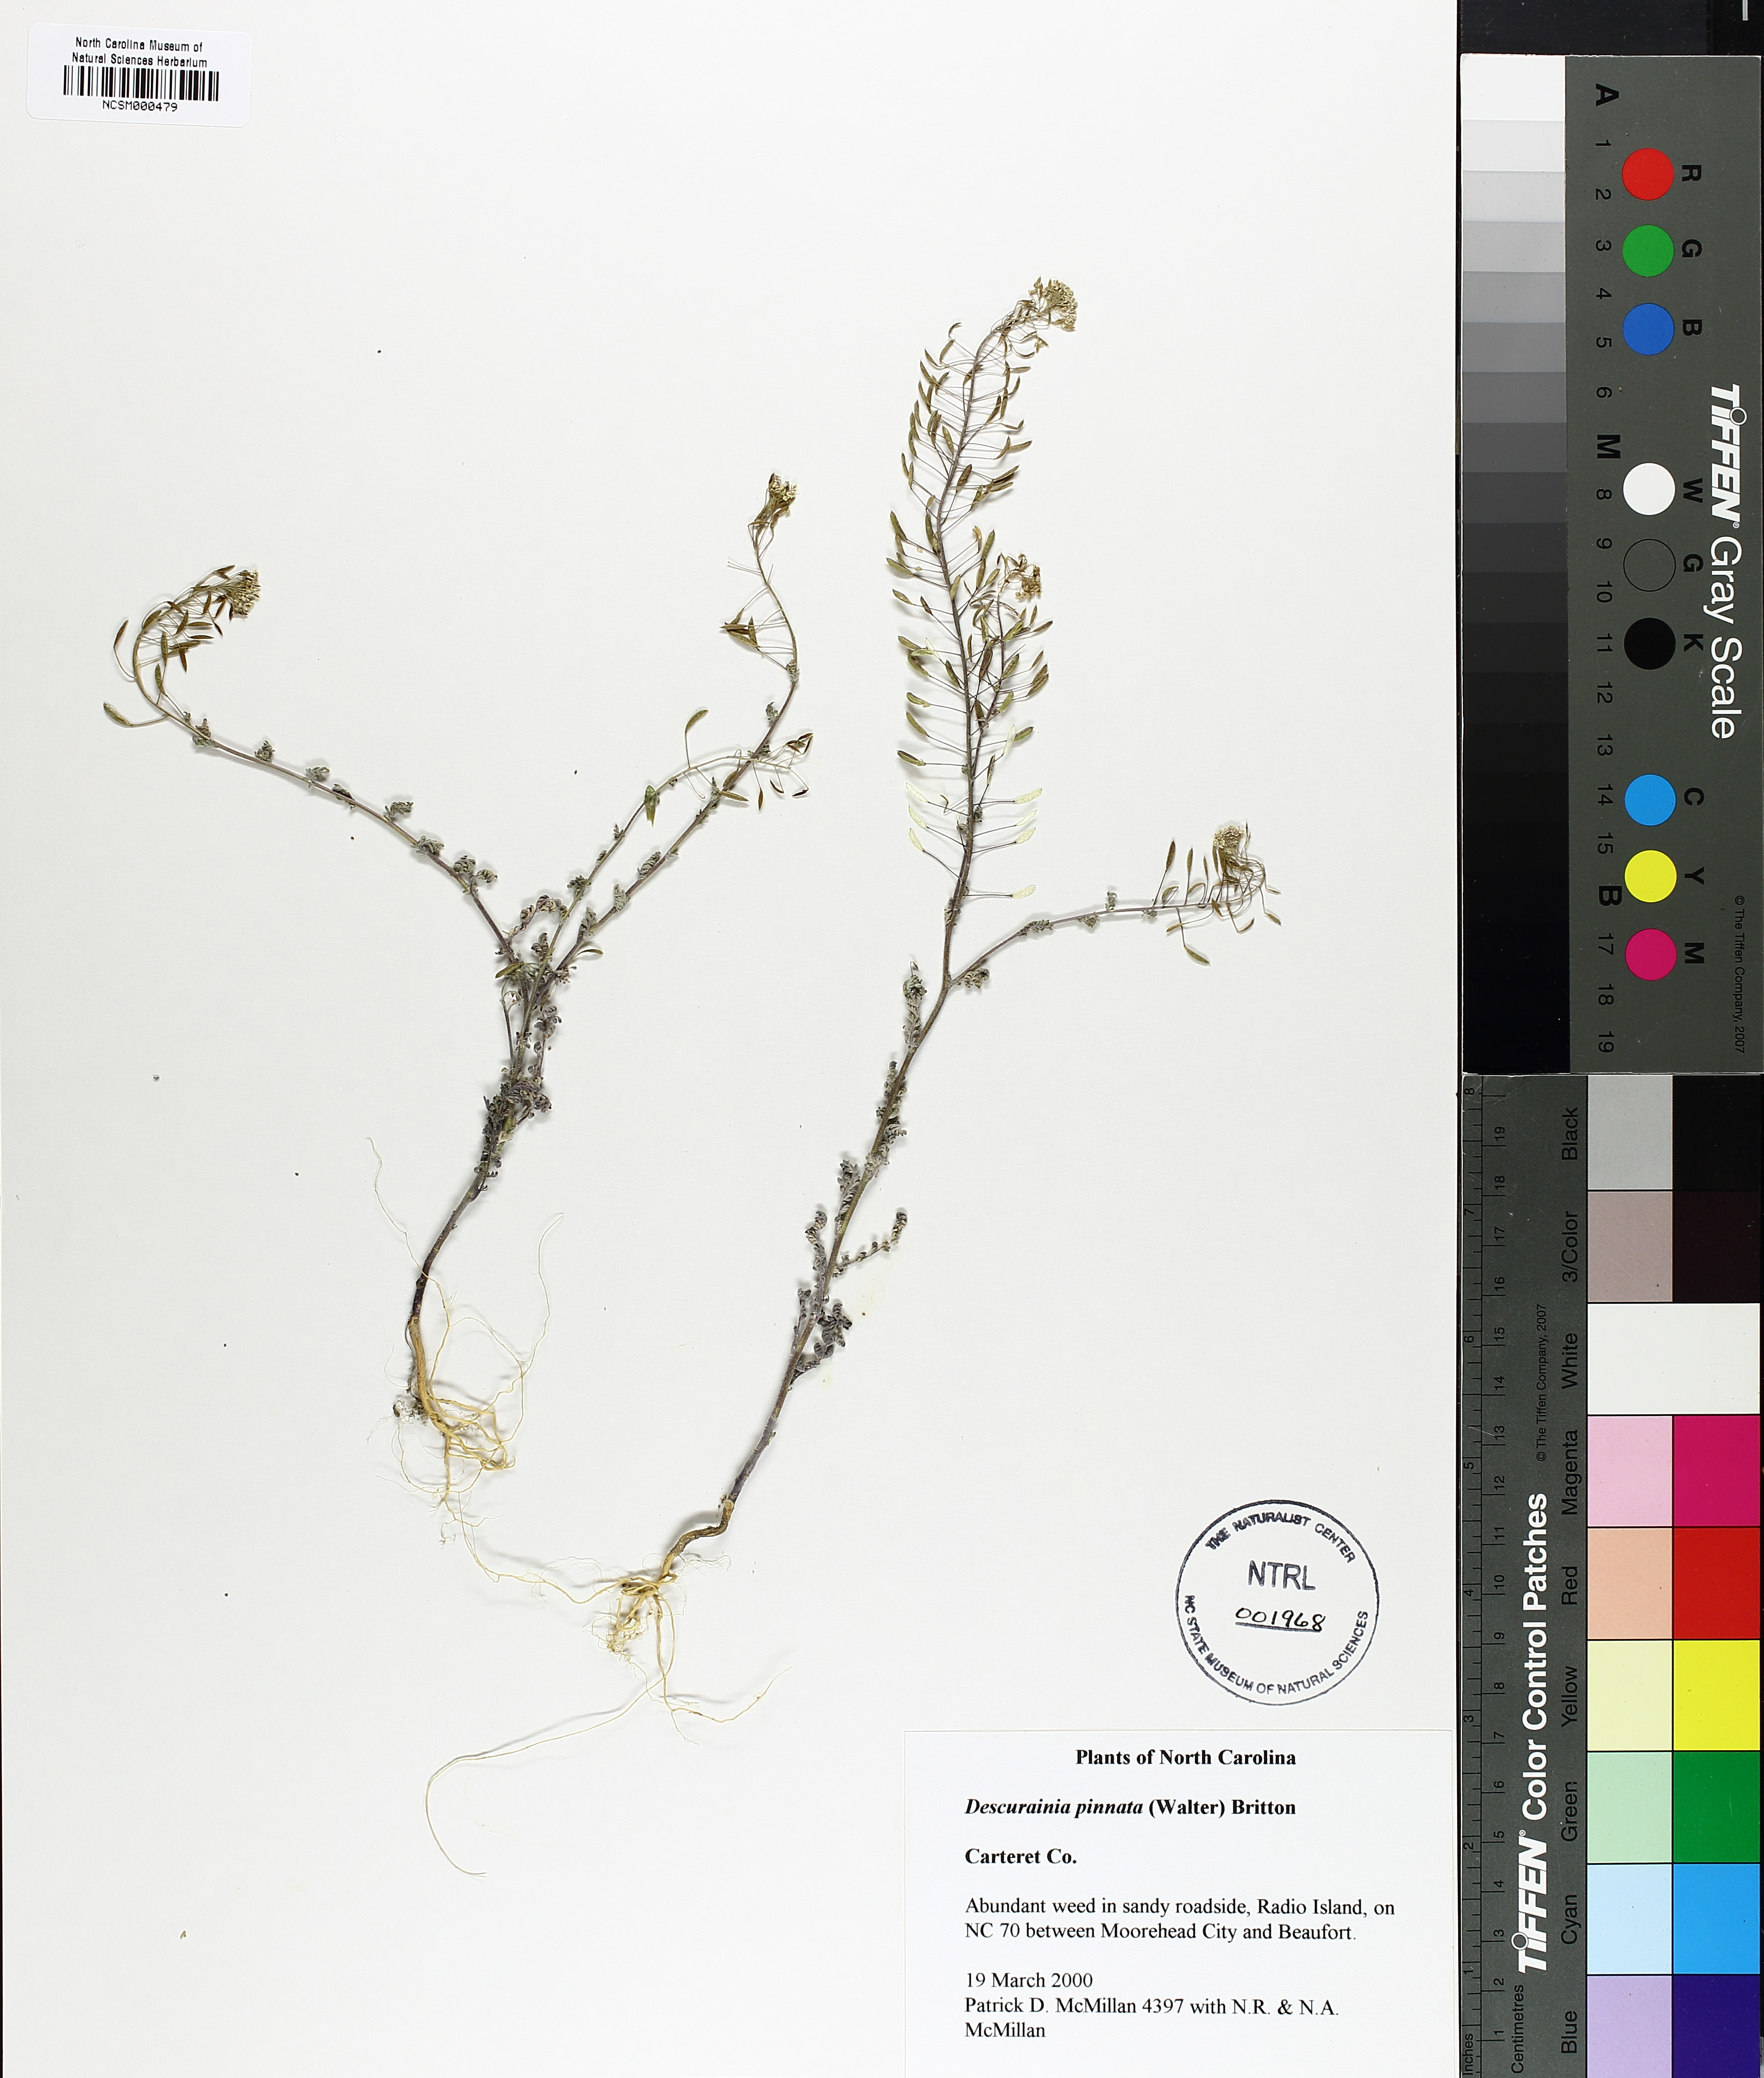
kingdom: Plantae
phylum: Tracheophyta
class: Magnoliopsida
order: Brassicales
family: Brassicaceae
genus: Descurainia
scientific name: Descurainia pinnata
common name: Western tansy mustard
